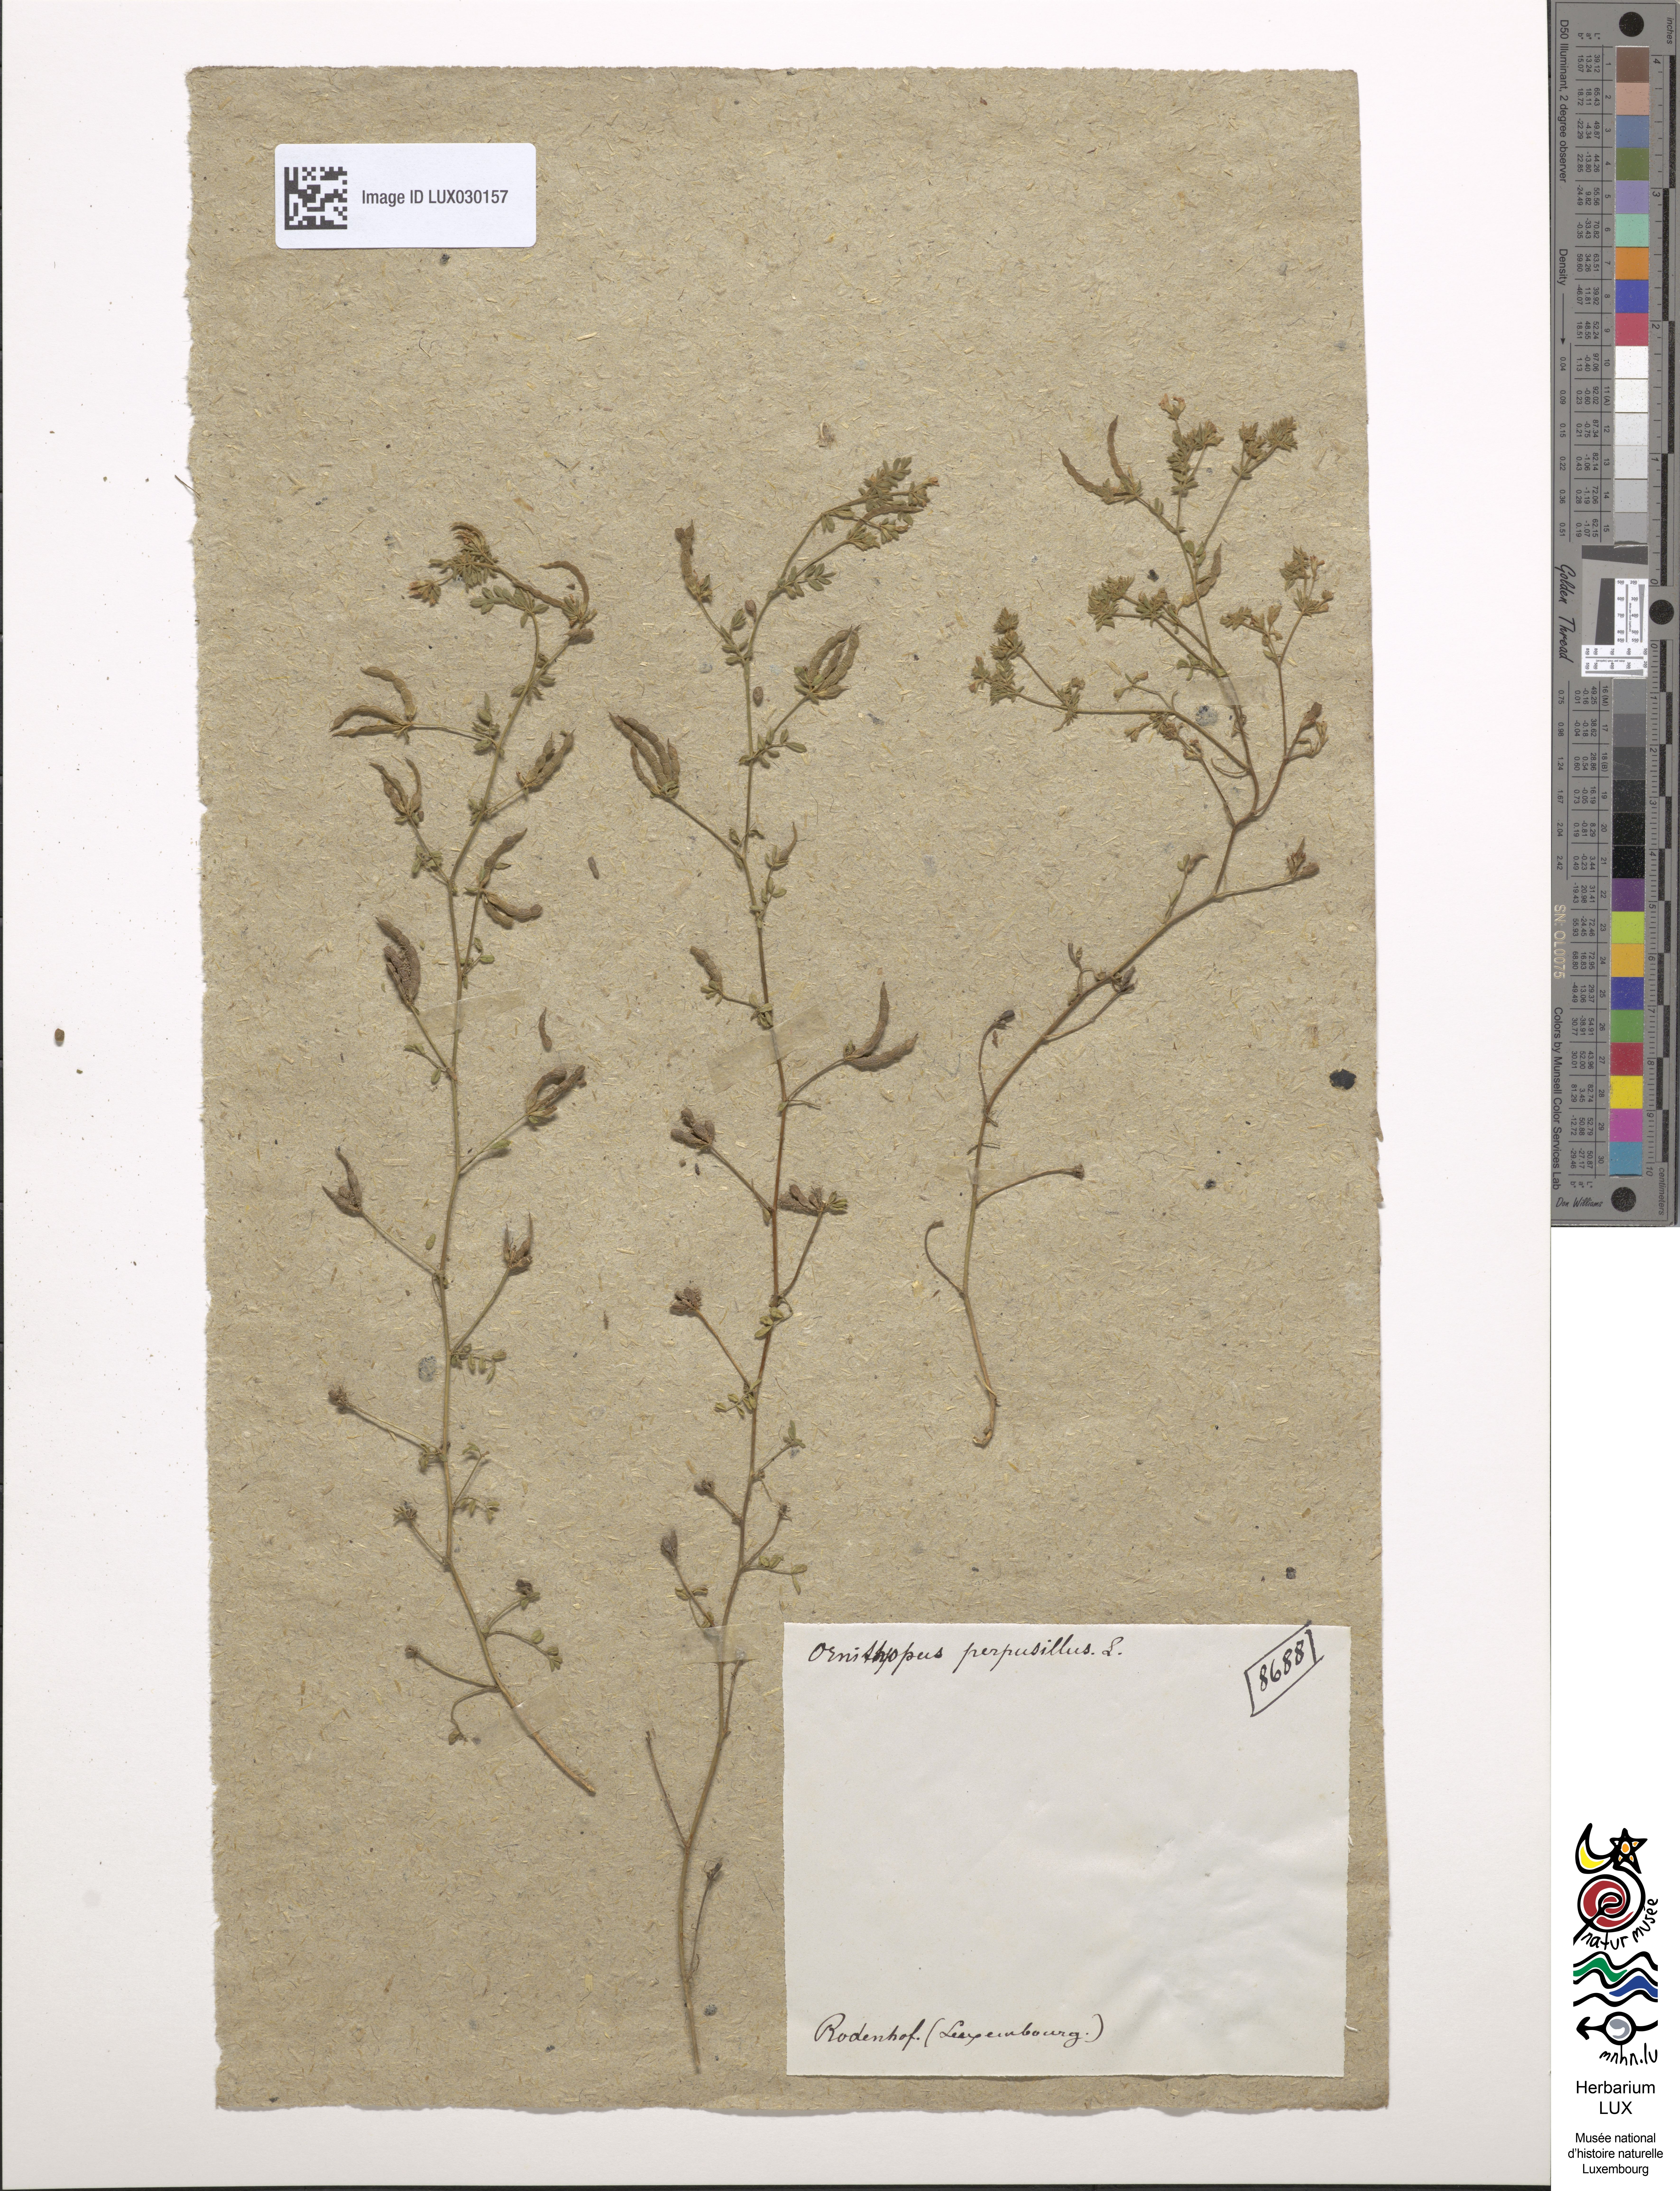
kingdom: Plantae
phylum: Tracheophyta
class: Magnoliopsida
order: Fabales
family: Fabaceae
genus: Ornithopus
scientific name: Ornithopus perpusillus
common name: Bird's-foot
